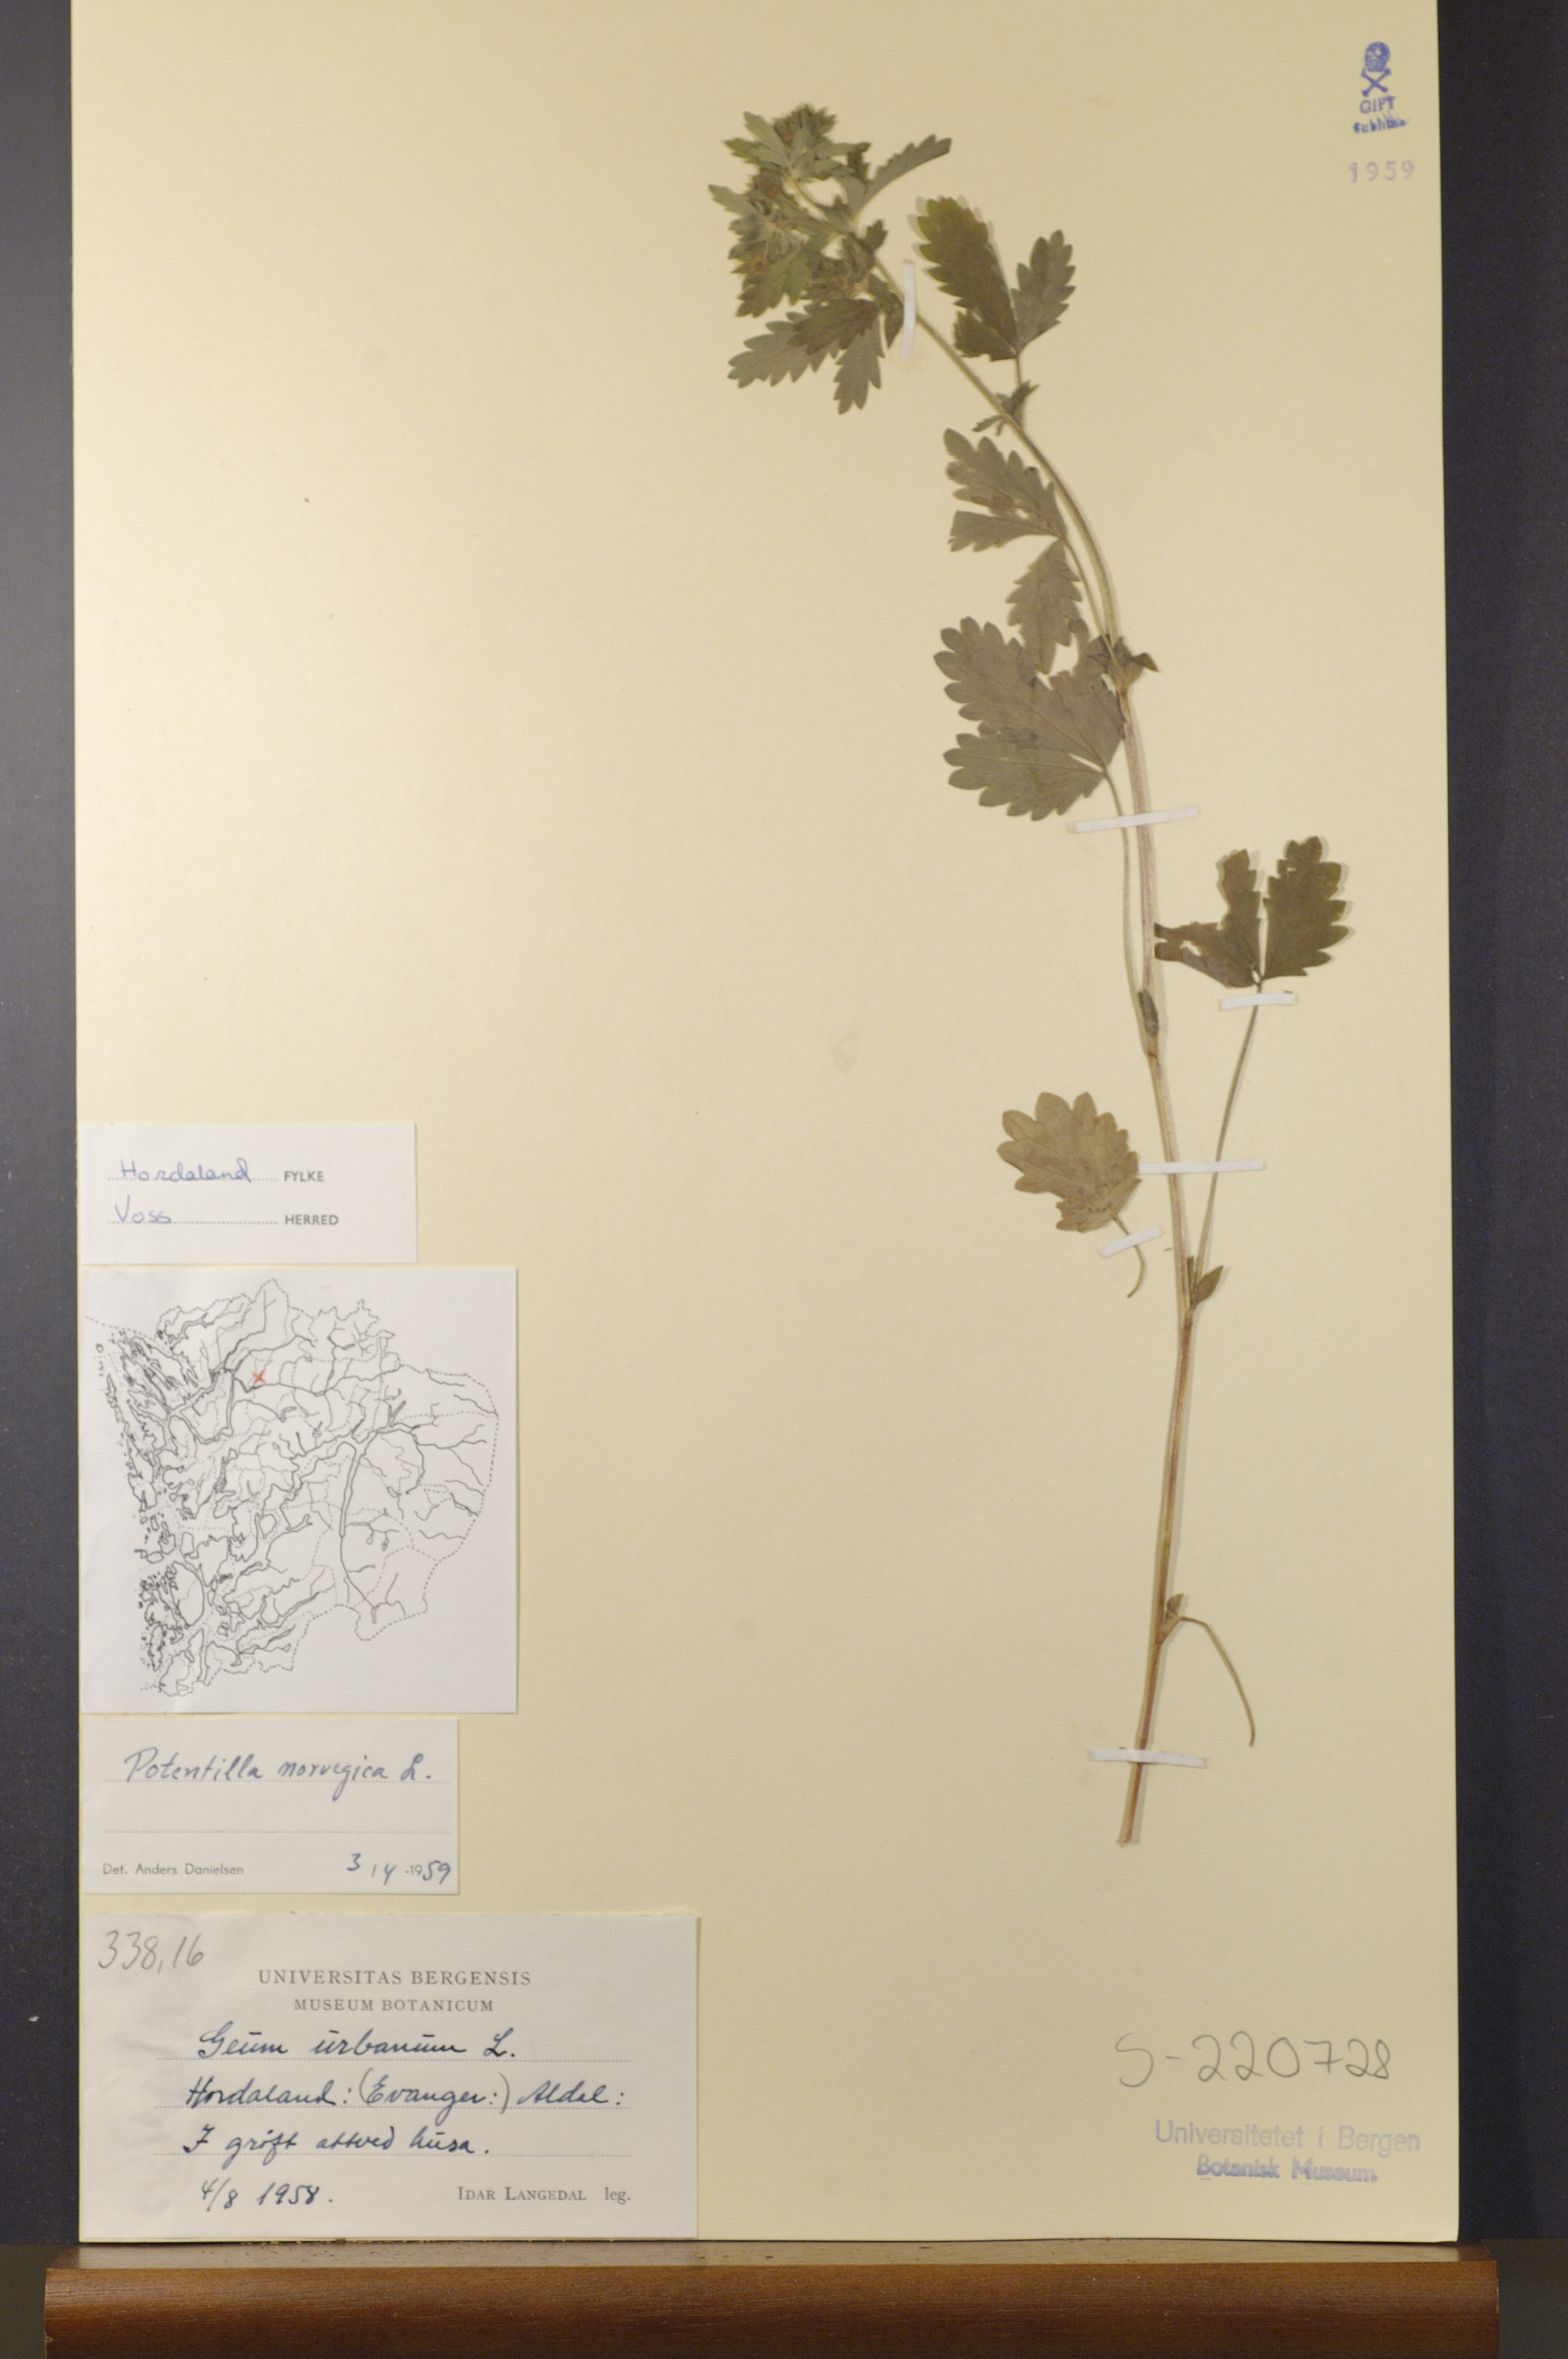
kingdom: Plantae
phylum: Tracheophyta
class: Magnoliopsida
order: Rosales
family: Rosaceae
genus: Potentilla
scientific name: Potentilla norvegica
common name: Ternate-leaved cinquefoil
